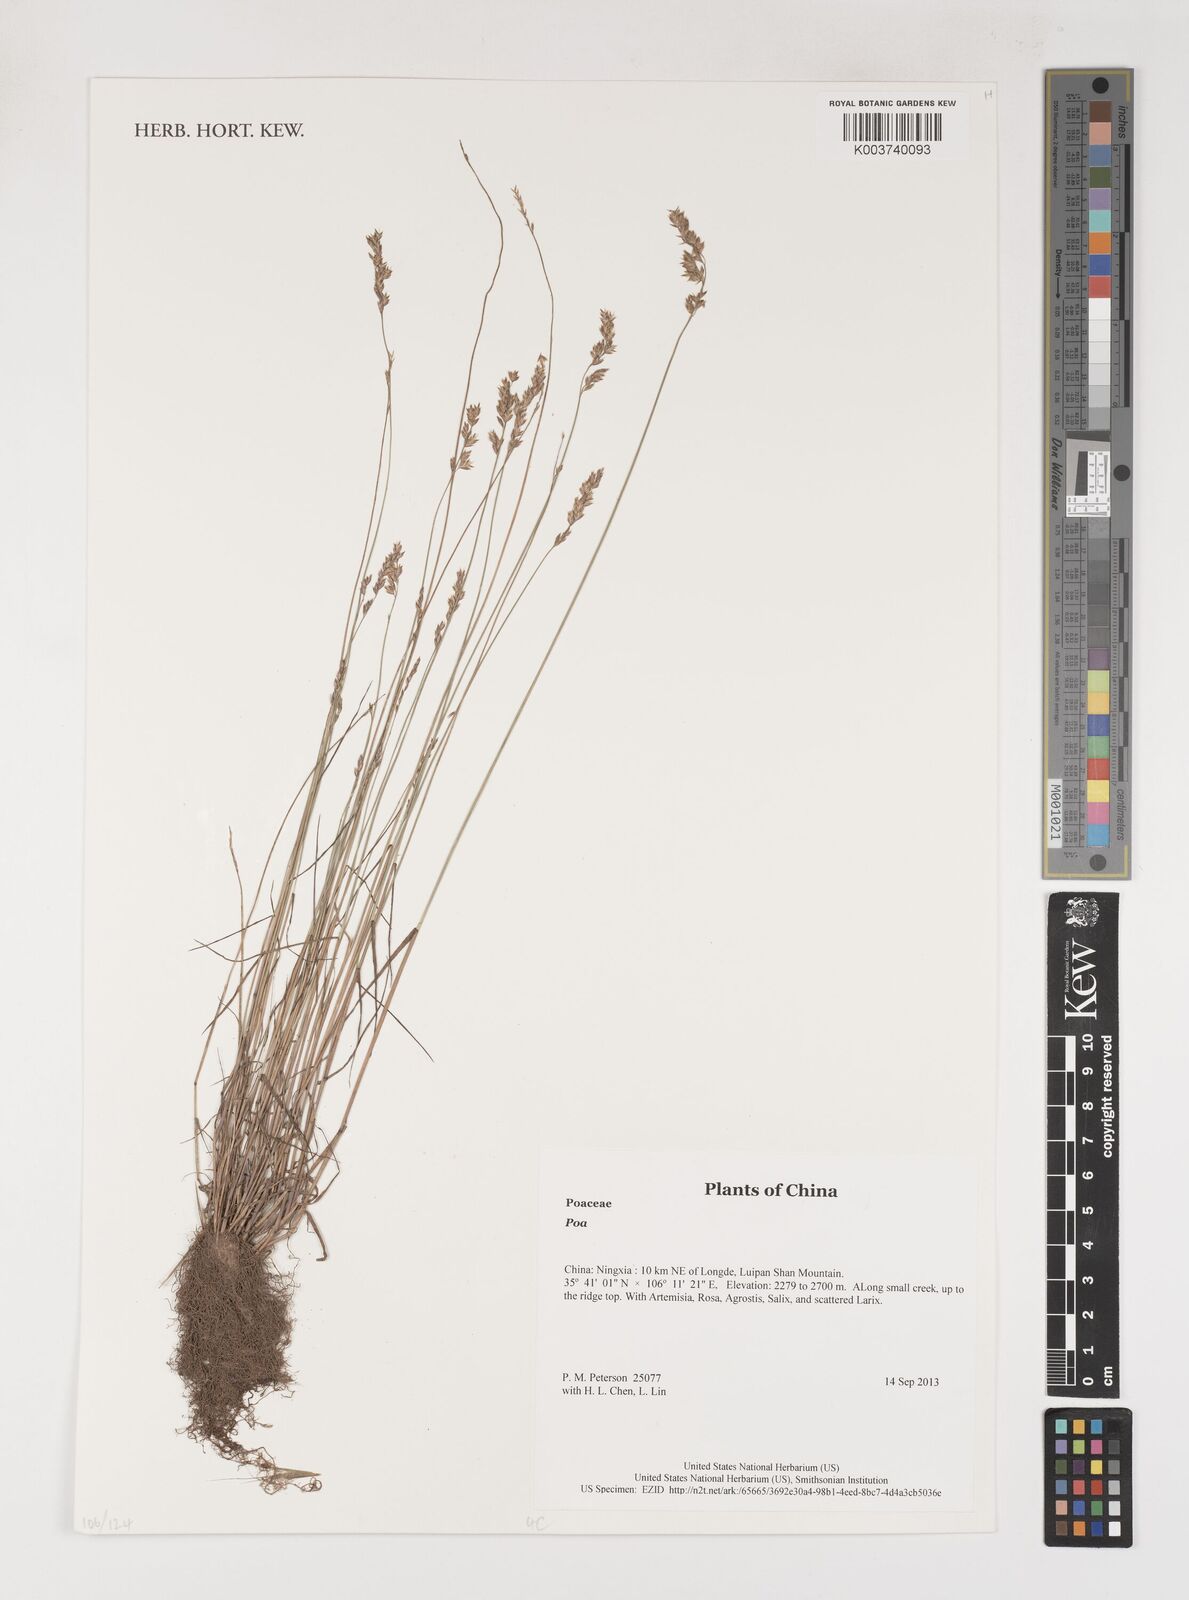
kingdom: Plantae
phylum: Tracheophyta
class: Liliopsida
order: Poales
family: Poaceae
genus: Poa
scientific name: Poa
